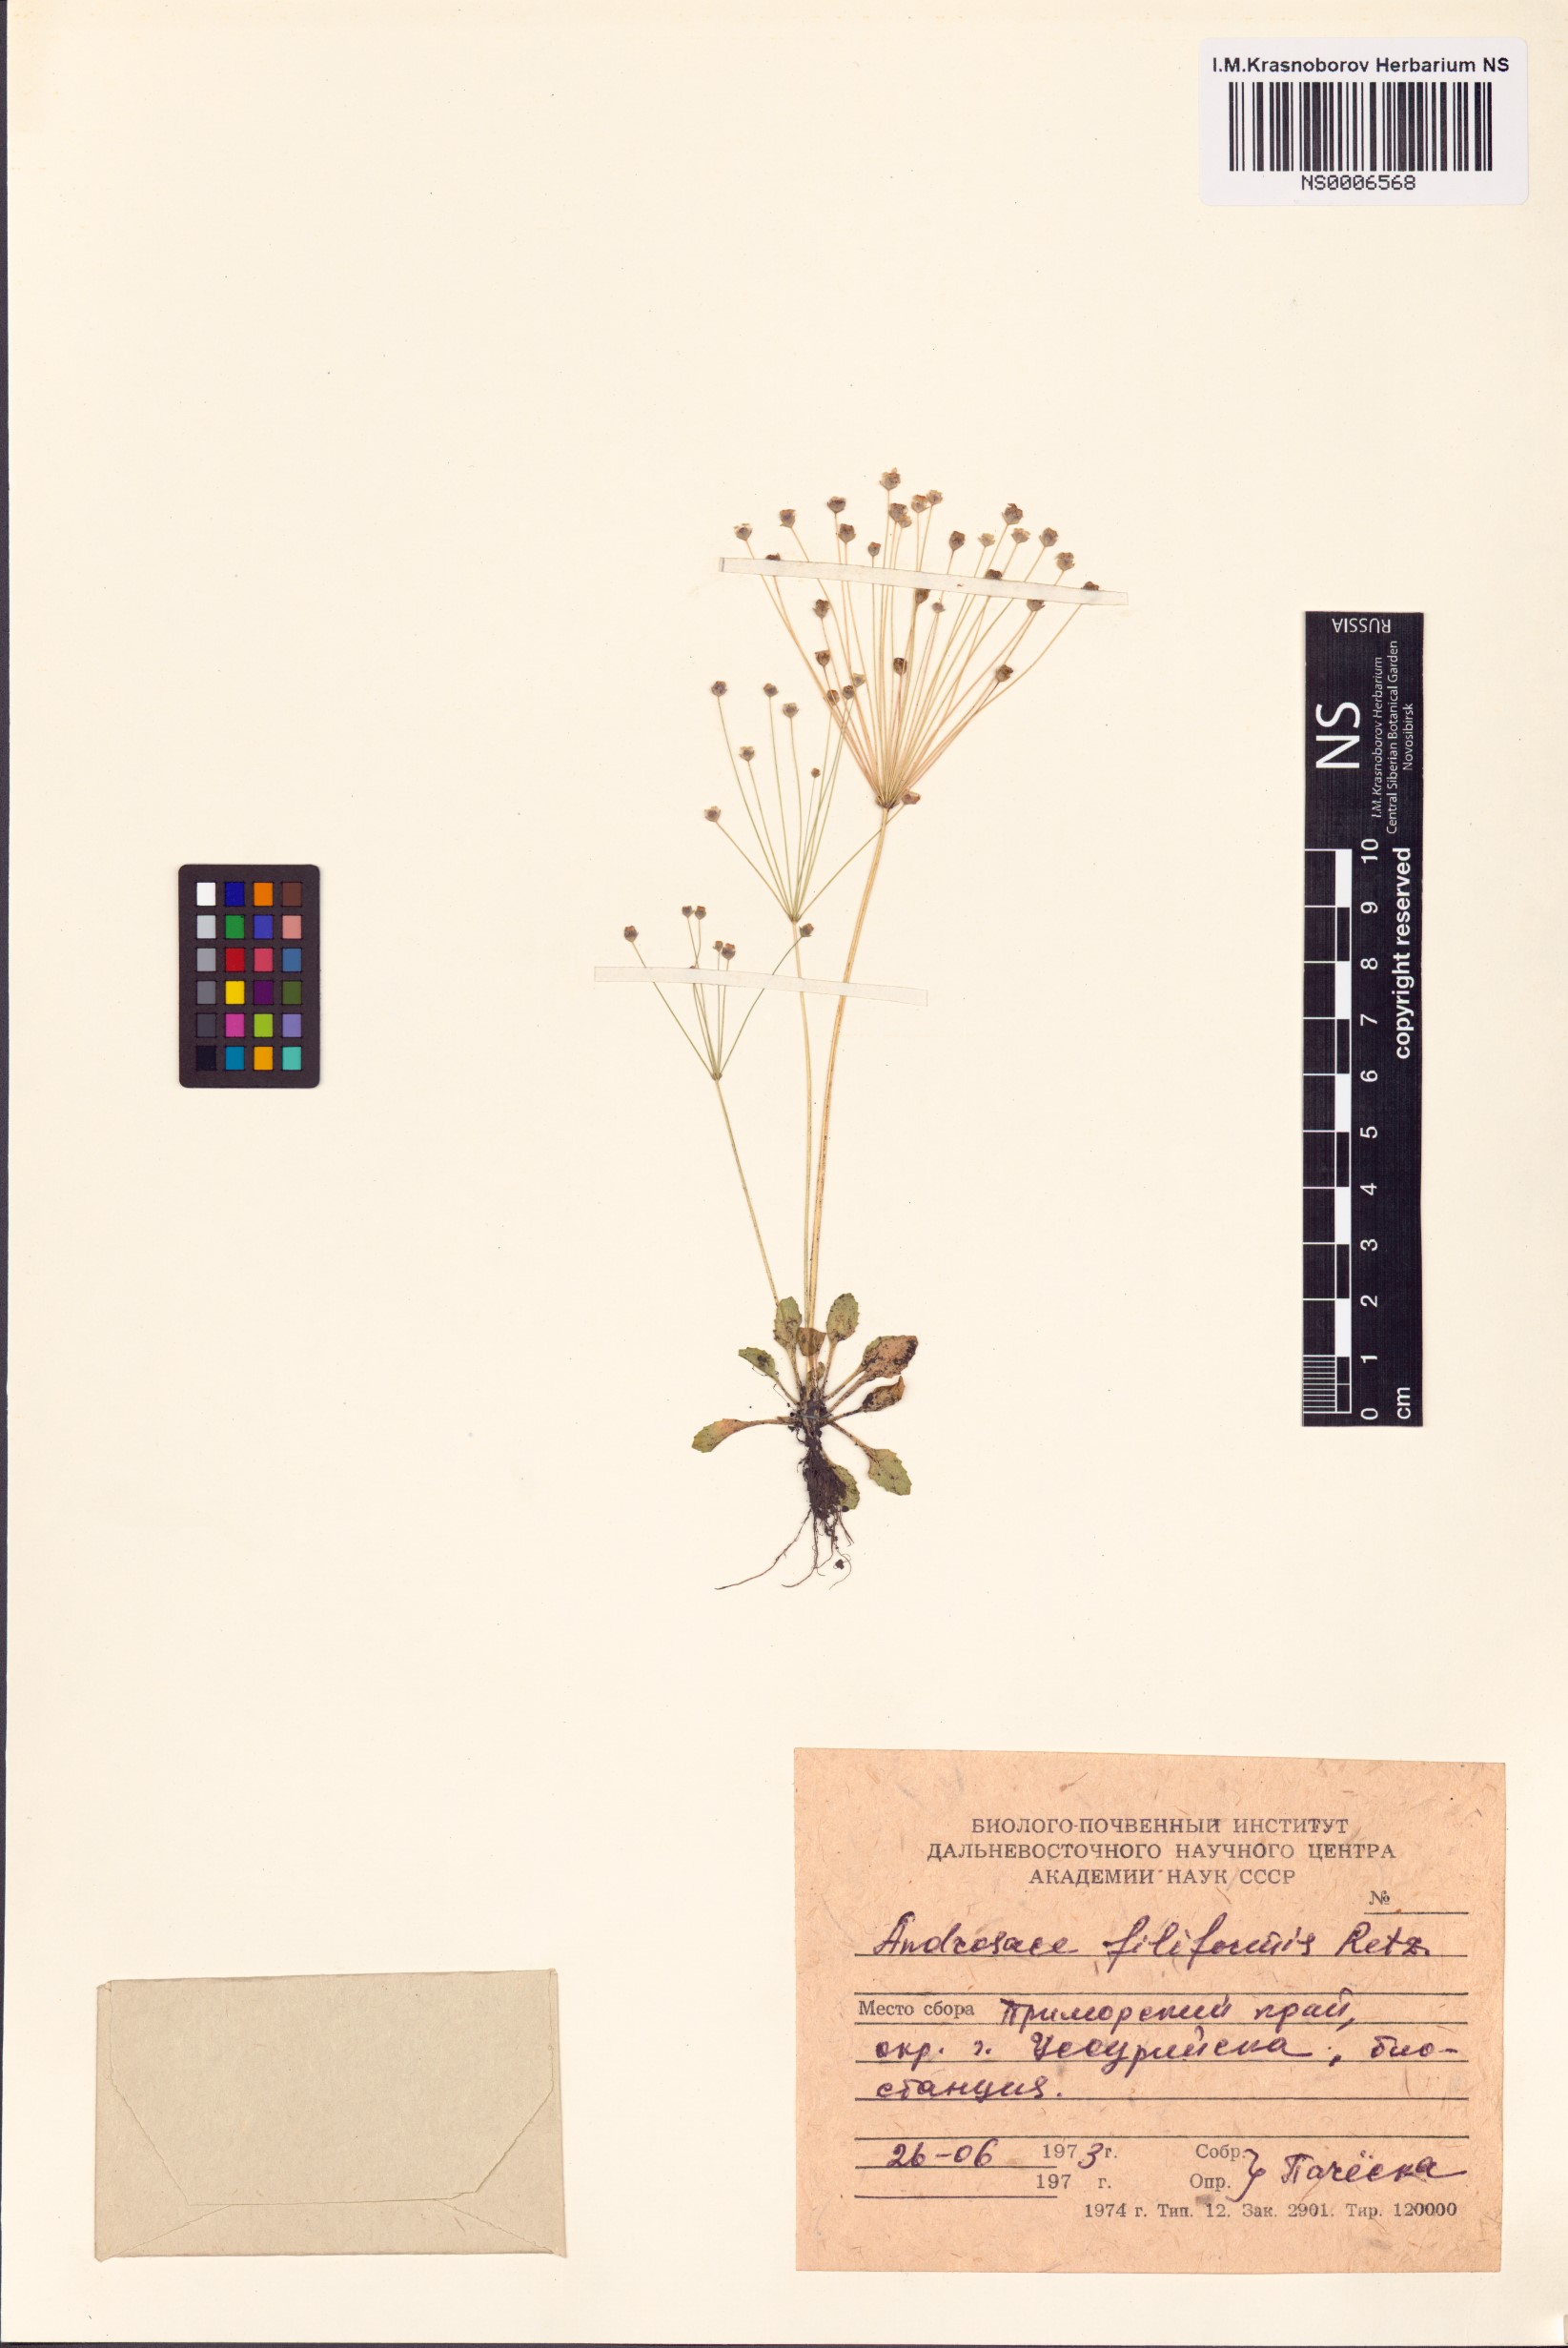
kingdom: Plantae
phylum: Tracheophyta
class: Magnoliopsida
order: Ericales
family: Primulaceae
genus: Androsace
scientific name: Androsace filiformis
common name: Filiform rock jasmine
